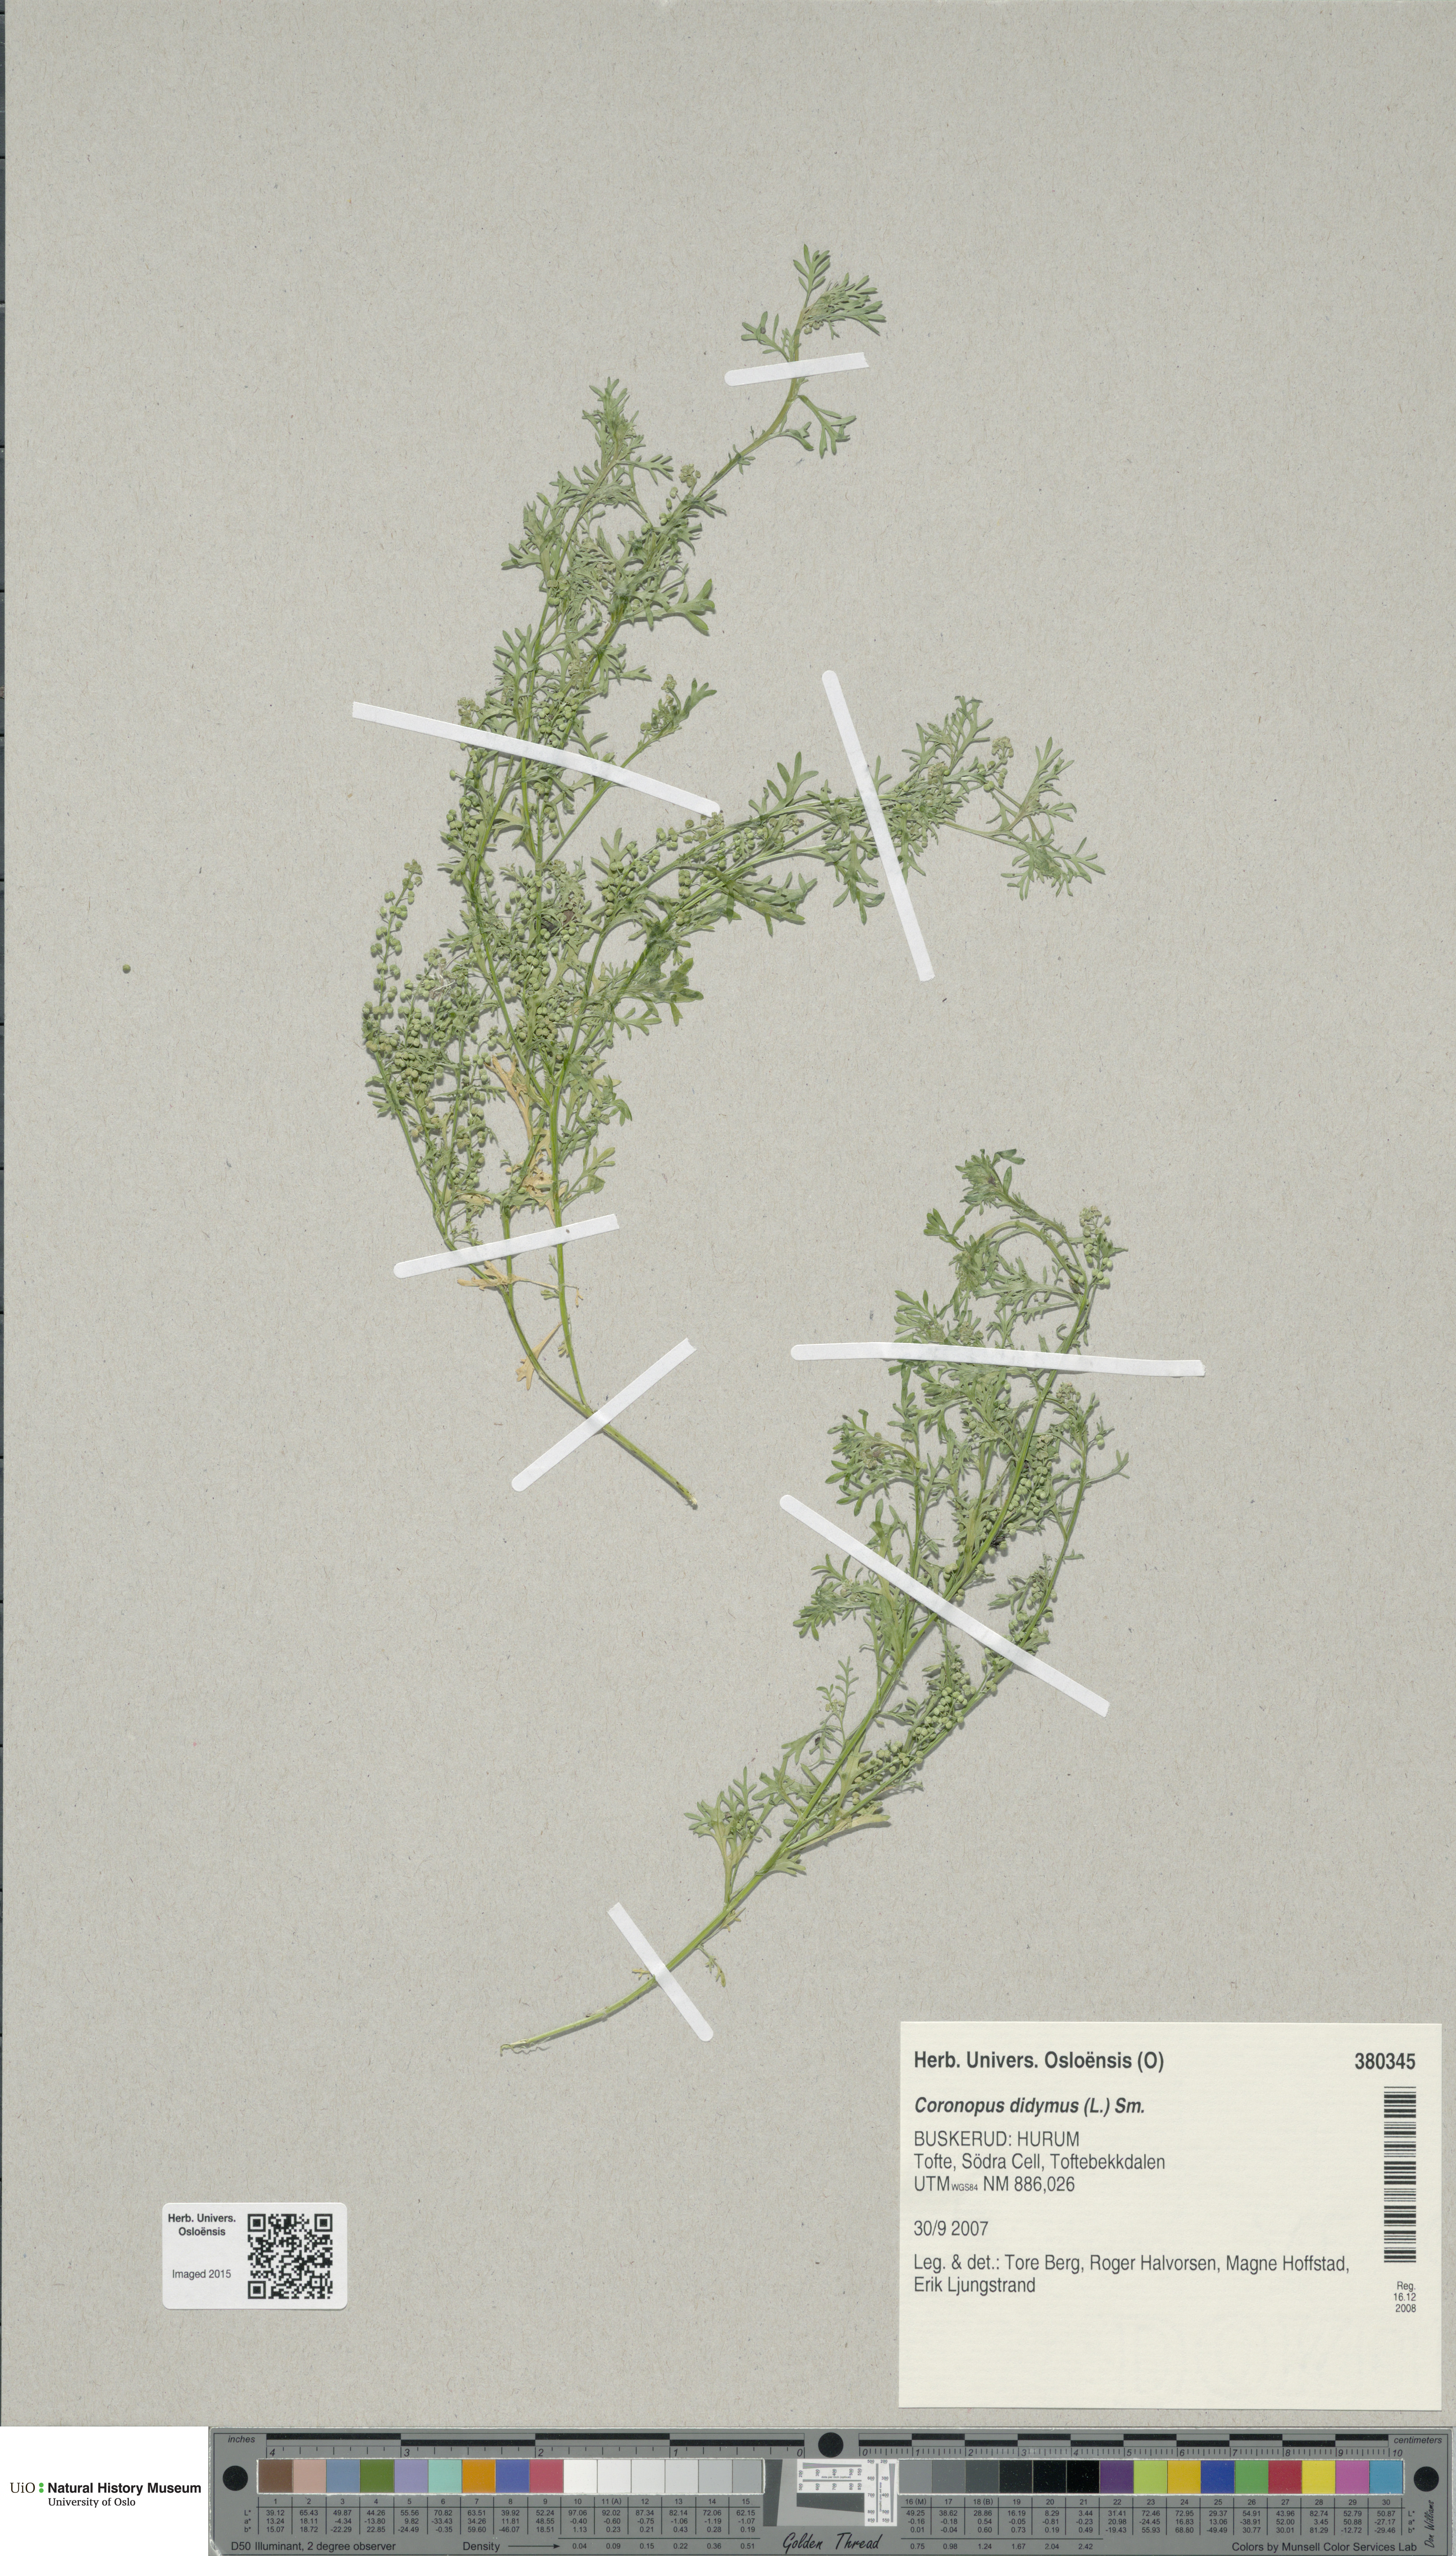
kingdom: Plantae
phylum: Tracheophyta
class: Magnoliopsida
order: Brassicales
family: Brassicaceae
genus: Lepidium
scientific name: Lepidium didymum
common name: Lesser swinecress
